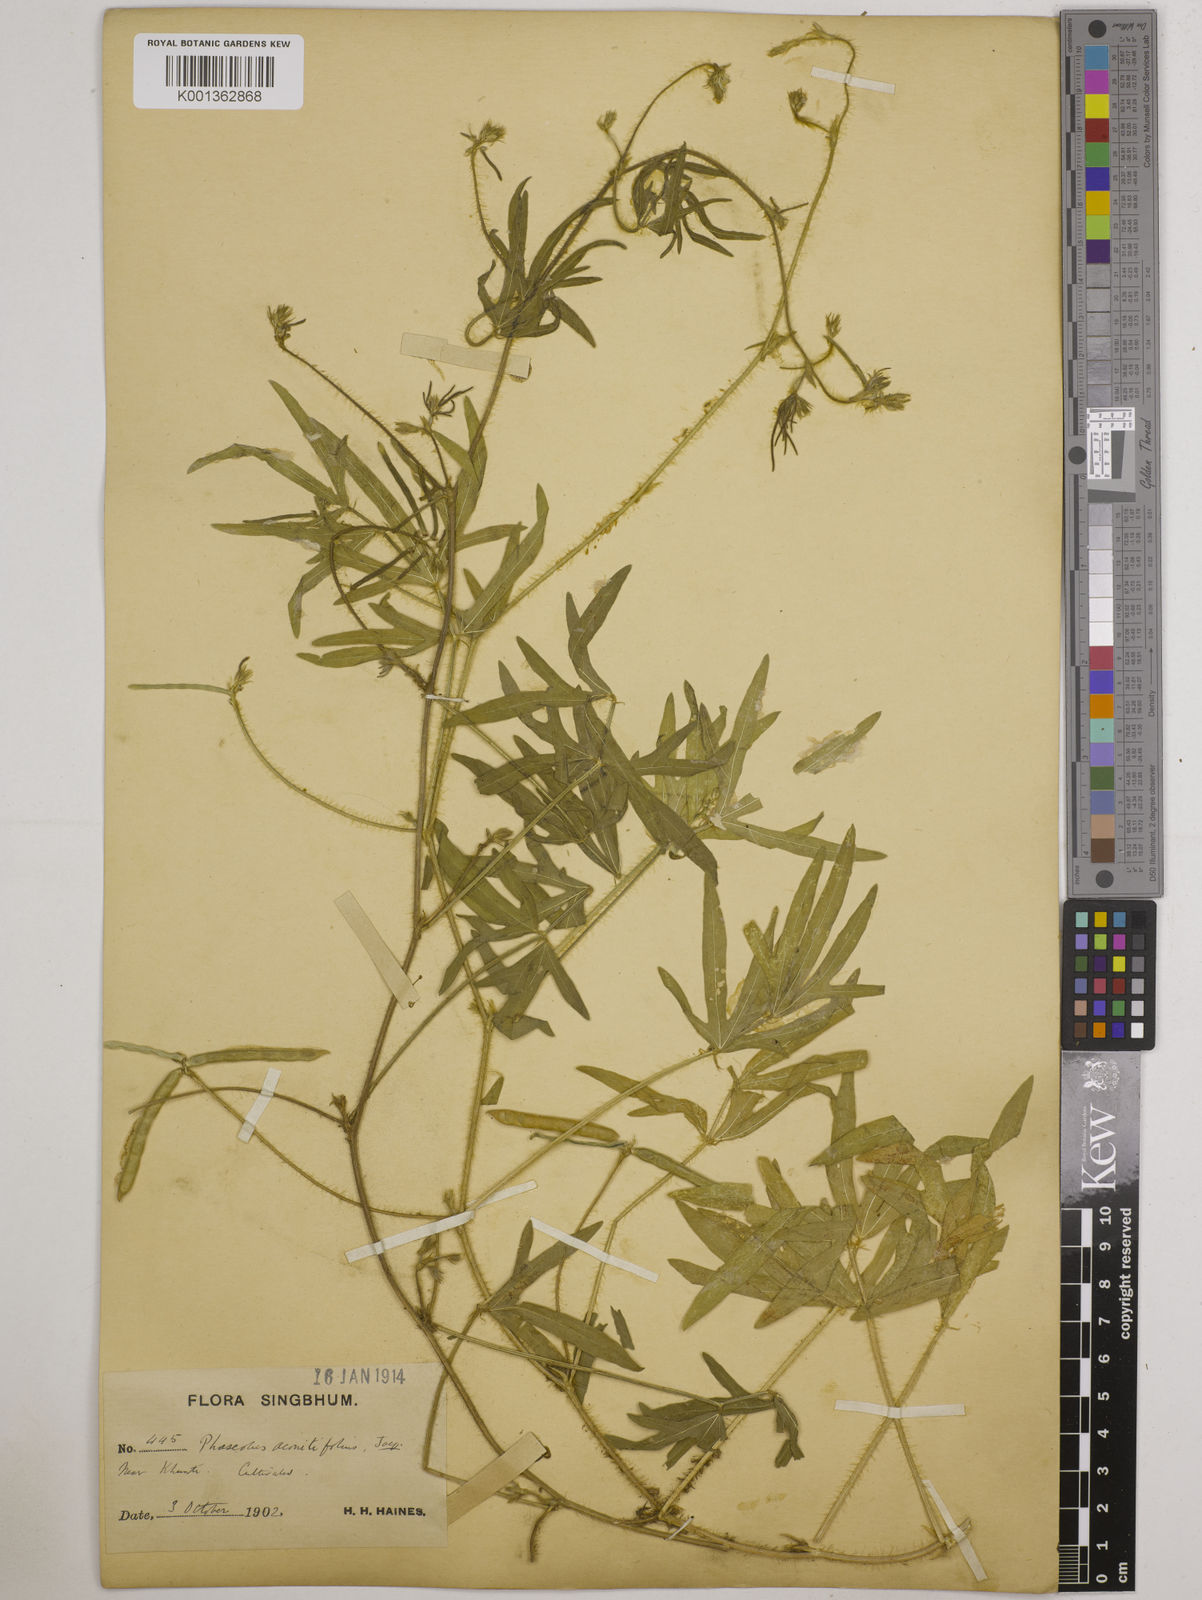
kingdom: Plantae
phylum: Tracheophyta
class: Magnoliopsida
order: Fabales
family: Fabaceae
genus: Vigna
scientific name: Vigna aconitifolia
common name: Dew bean
